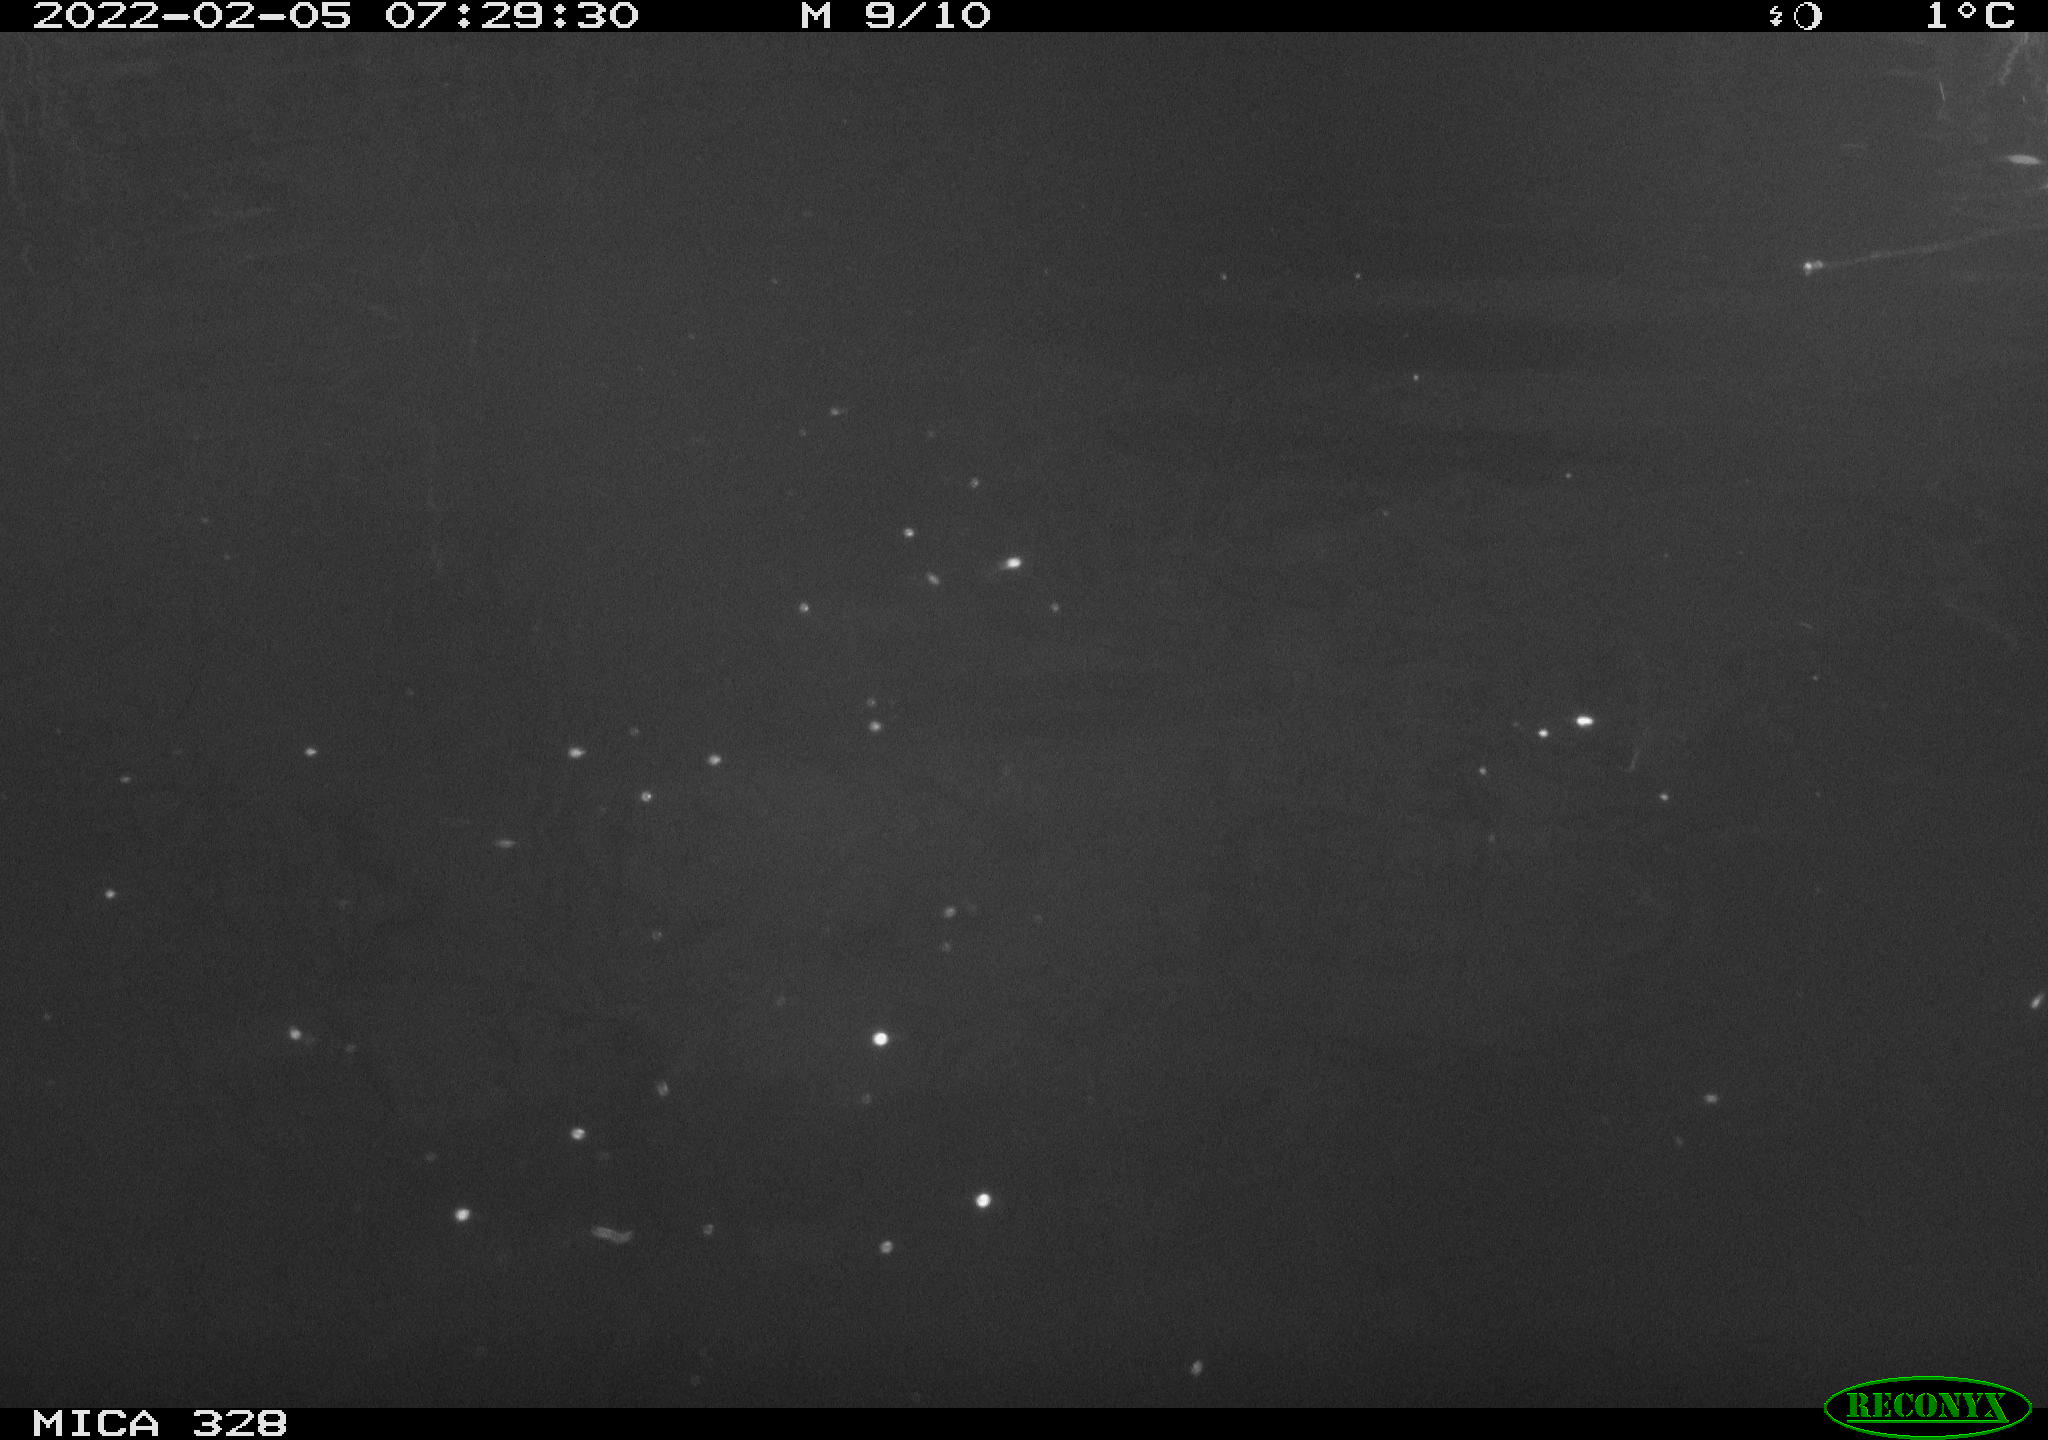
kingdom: Animalia
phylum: Chordata
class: Mammalia
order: Rodentia
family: Cricetidae
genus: Ondatra
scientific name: Ondatra zibethicus
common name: Muskrat
